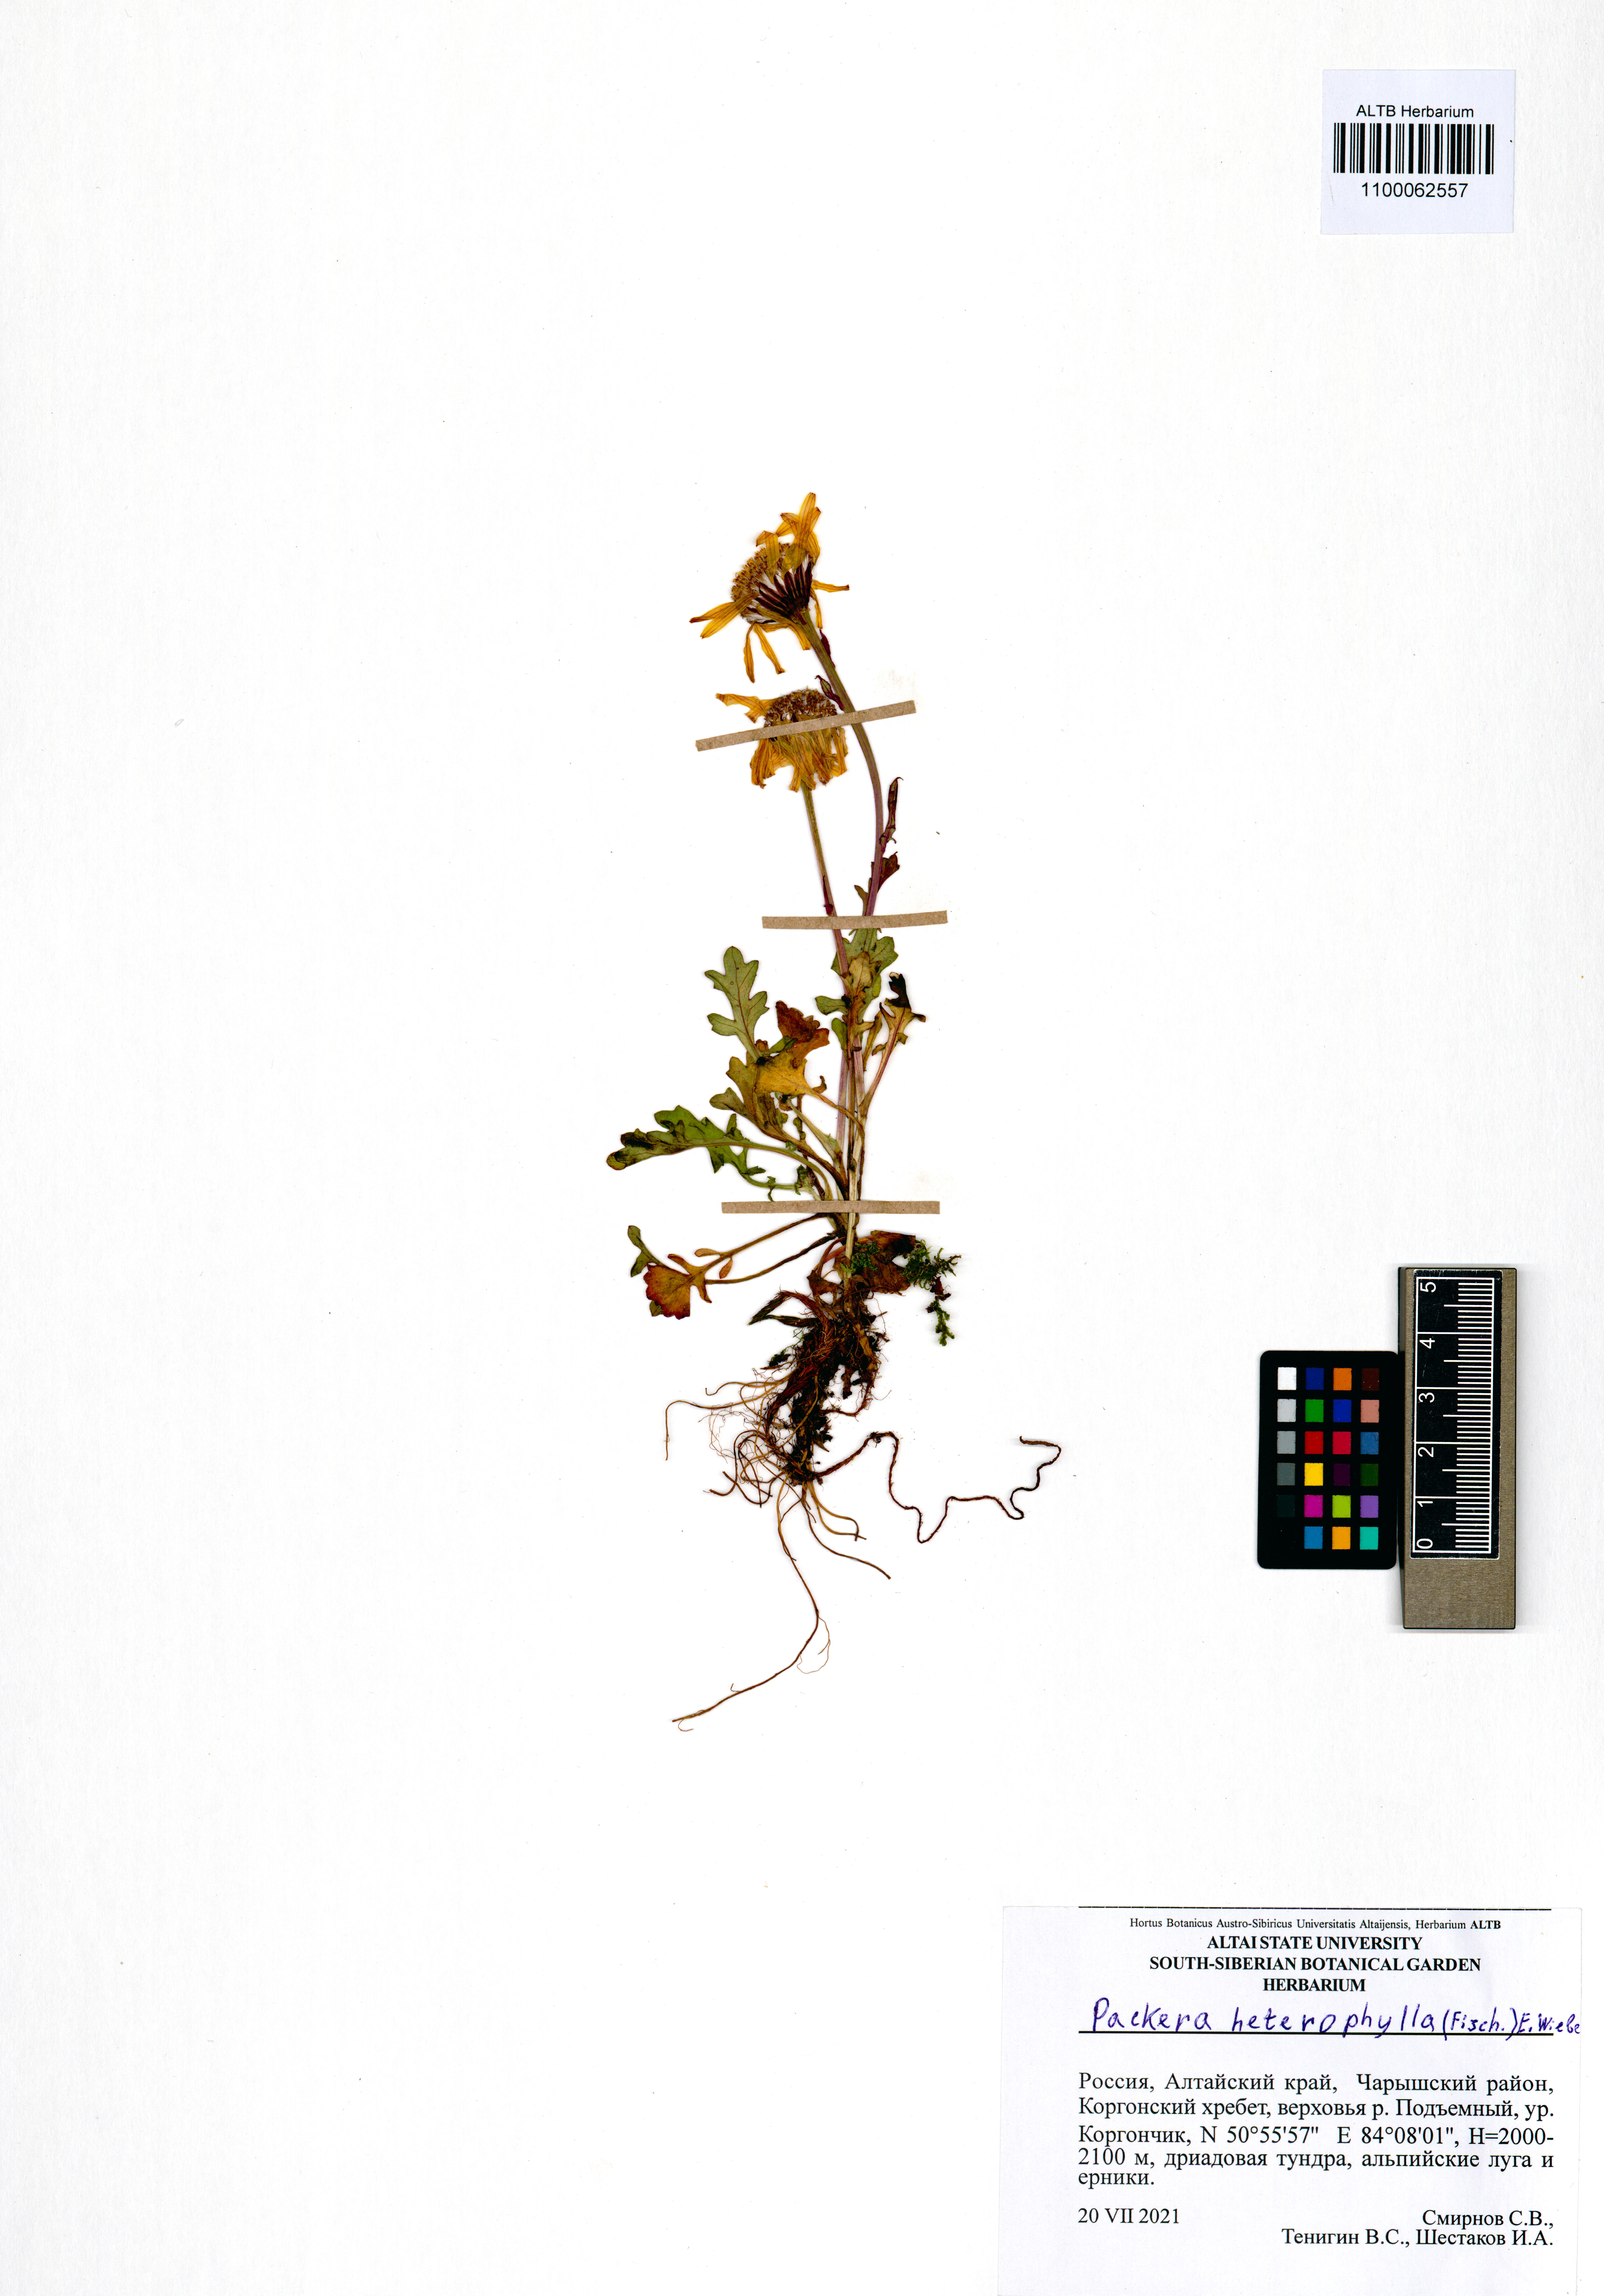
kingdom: Plantae
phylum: Tracheophyta
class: Magnoliopsida
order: Asterales
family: Asteraceae
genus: Packera
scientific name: Packera heterophylla
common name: Arctic butterweed
